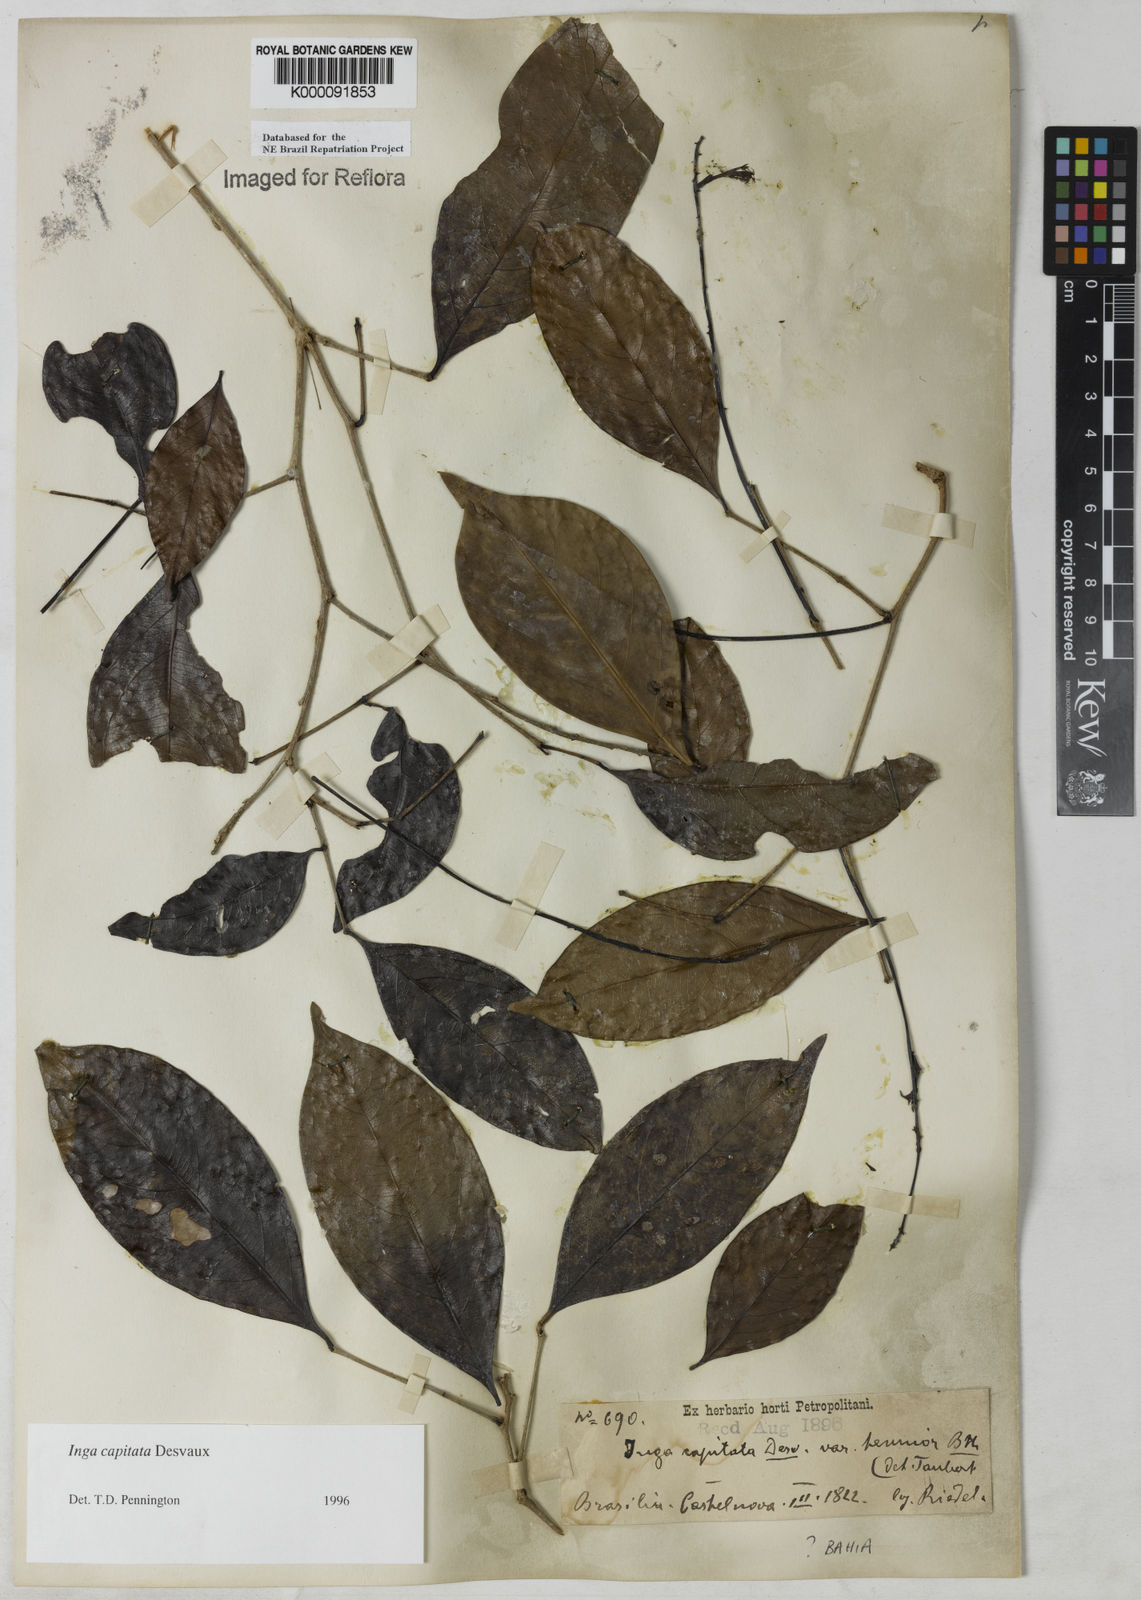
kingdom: Plantae
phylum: Tracheophyta
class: Magnoliopsida
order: Fabales
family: Fabaceae
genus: Inga
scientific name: Inga capitata
